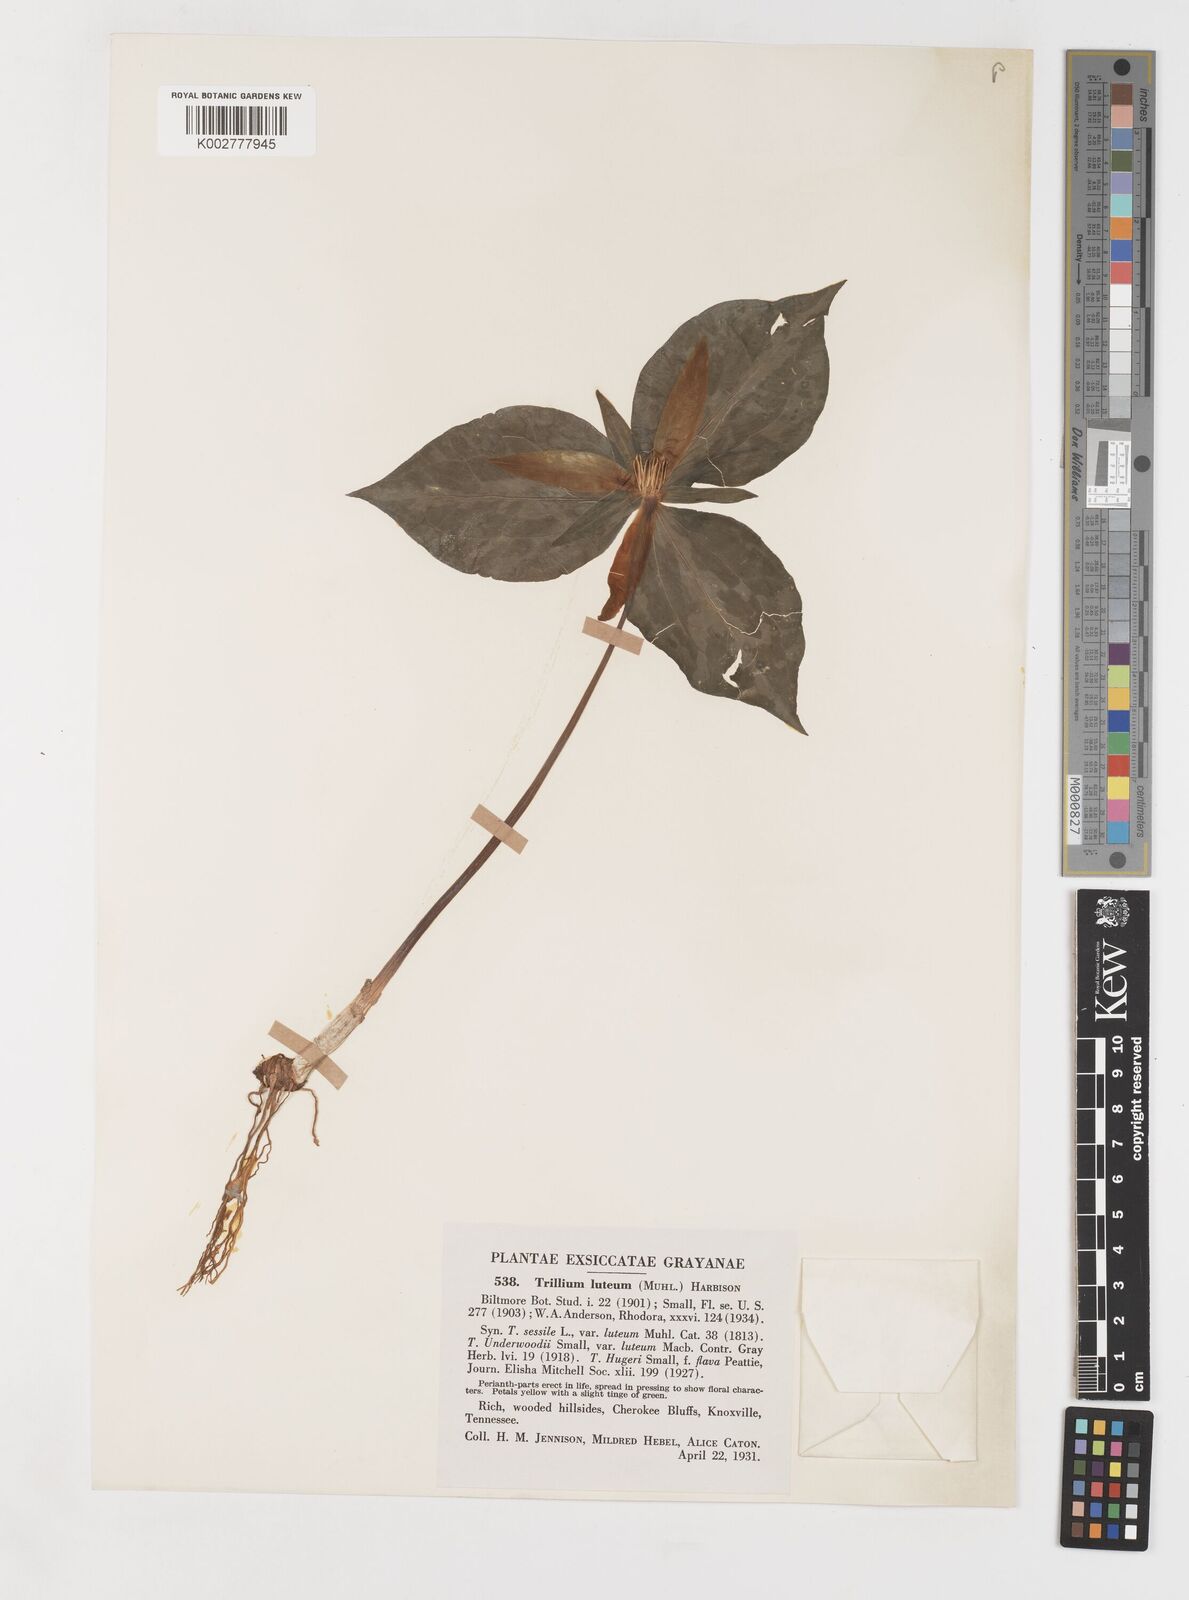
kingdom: Plantae
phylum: Tracheophyta
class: Liliopsida
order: Liliales
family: Melanthiaceae
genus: Trillium
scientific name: Trillium luteum
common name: Wax trillium
